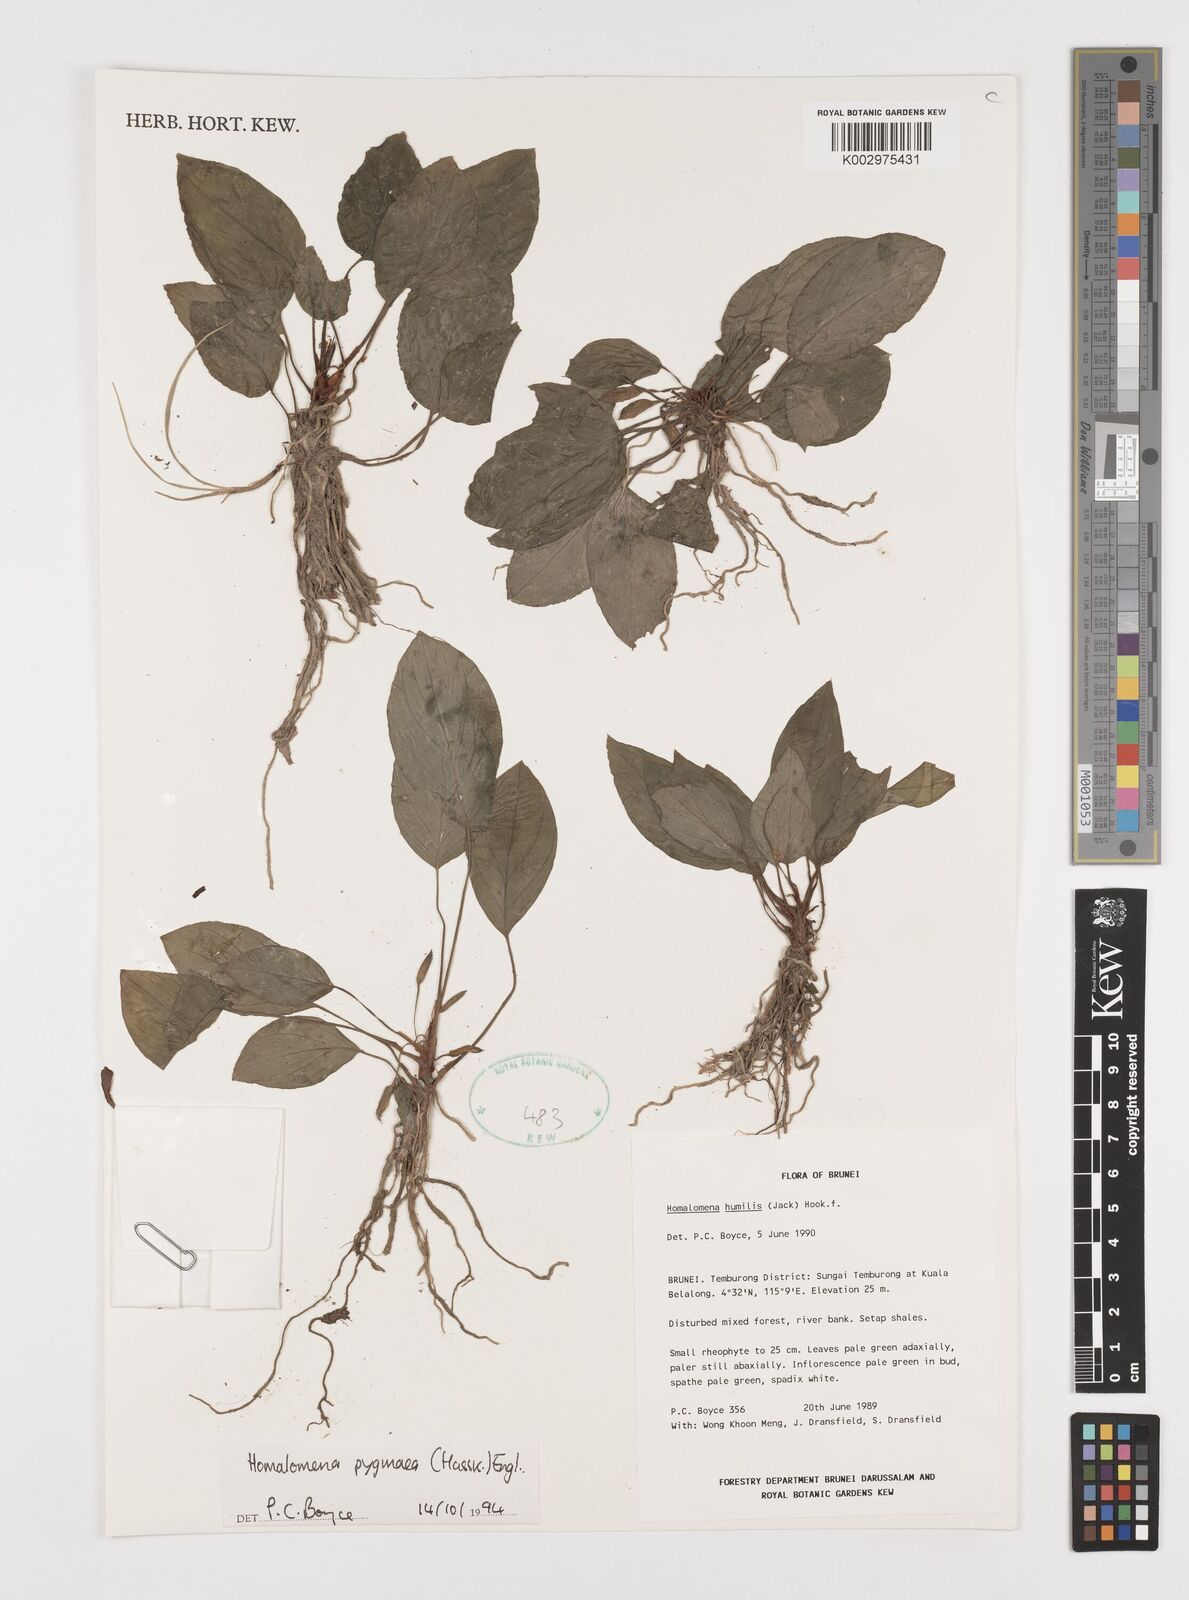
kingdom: Plantae
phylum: Tracheophyta
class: Liliopsida
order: Alismatales
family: Araceae
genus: Homalomena
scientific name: Homalomena humilis
